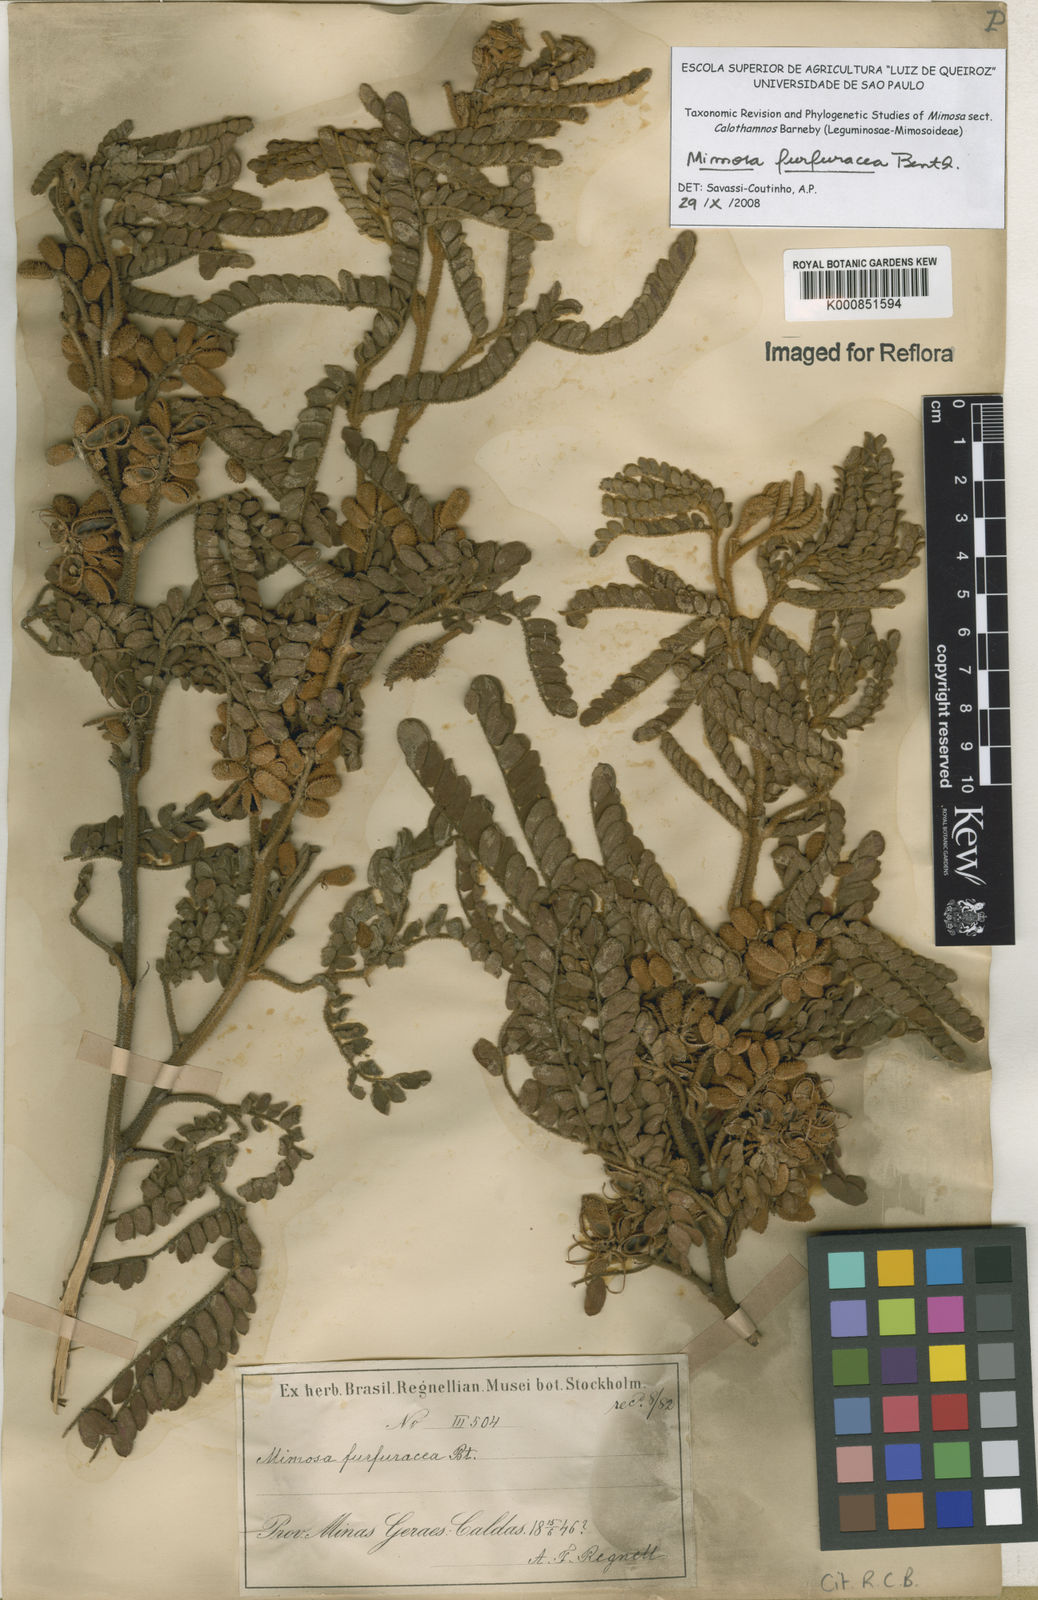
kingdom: Plantae
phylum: Tracheophyta
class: Magnoliopsida
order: Fabales
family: Fabaceae
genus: Mimosa
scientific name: Mimosa furfuracea
